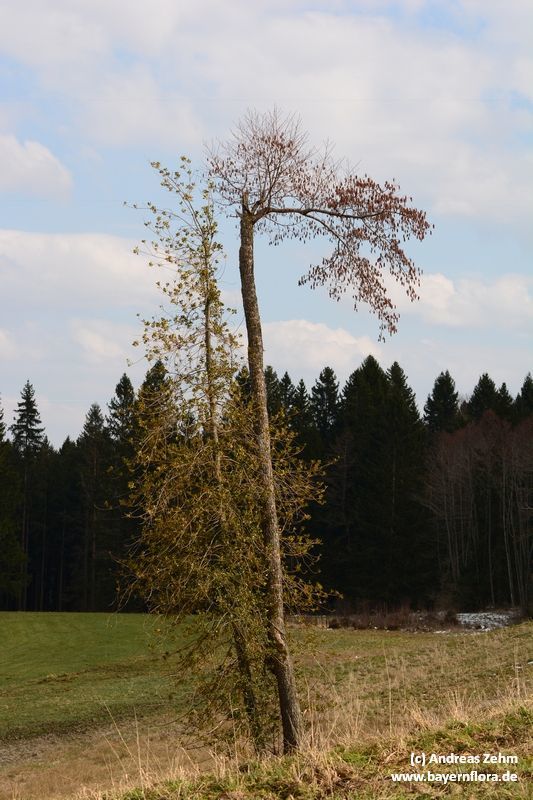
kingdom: Plantae
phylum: Tracheophyta
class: Magnoliopsida
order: Aquifoliales
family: Aquifoliaceae
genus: Ilex
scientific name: Ilex aquifolium
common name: English holly
